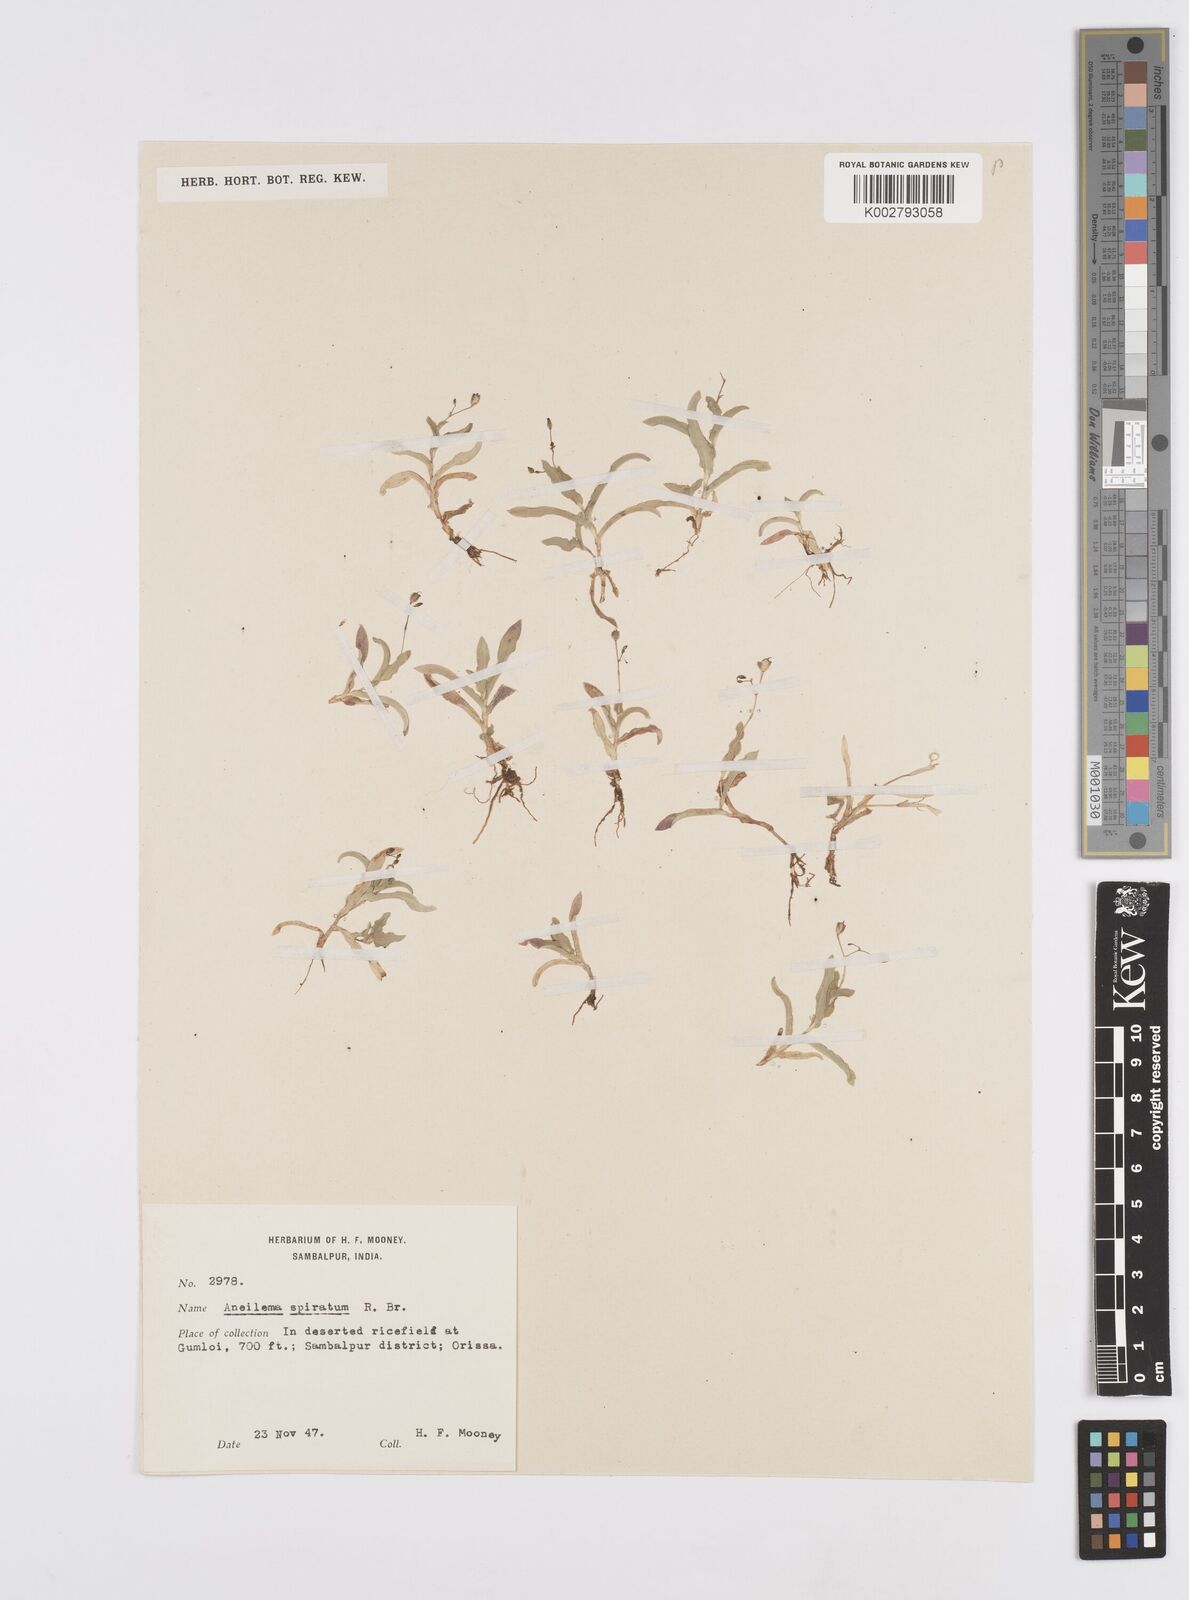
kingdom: Plantae
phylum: Tracheophyta
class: Liliopsida
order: Commelinales
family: Commelinaceae
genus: Murdannia
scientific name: Murdannia spirata
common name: Asiatic dewflower
